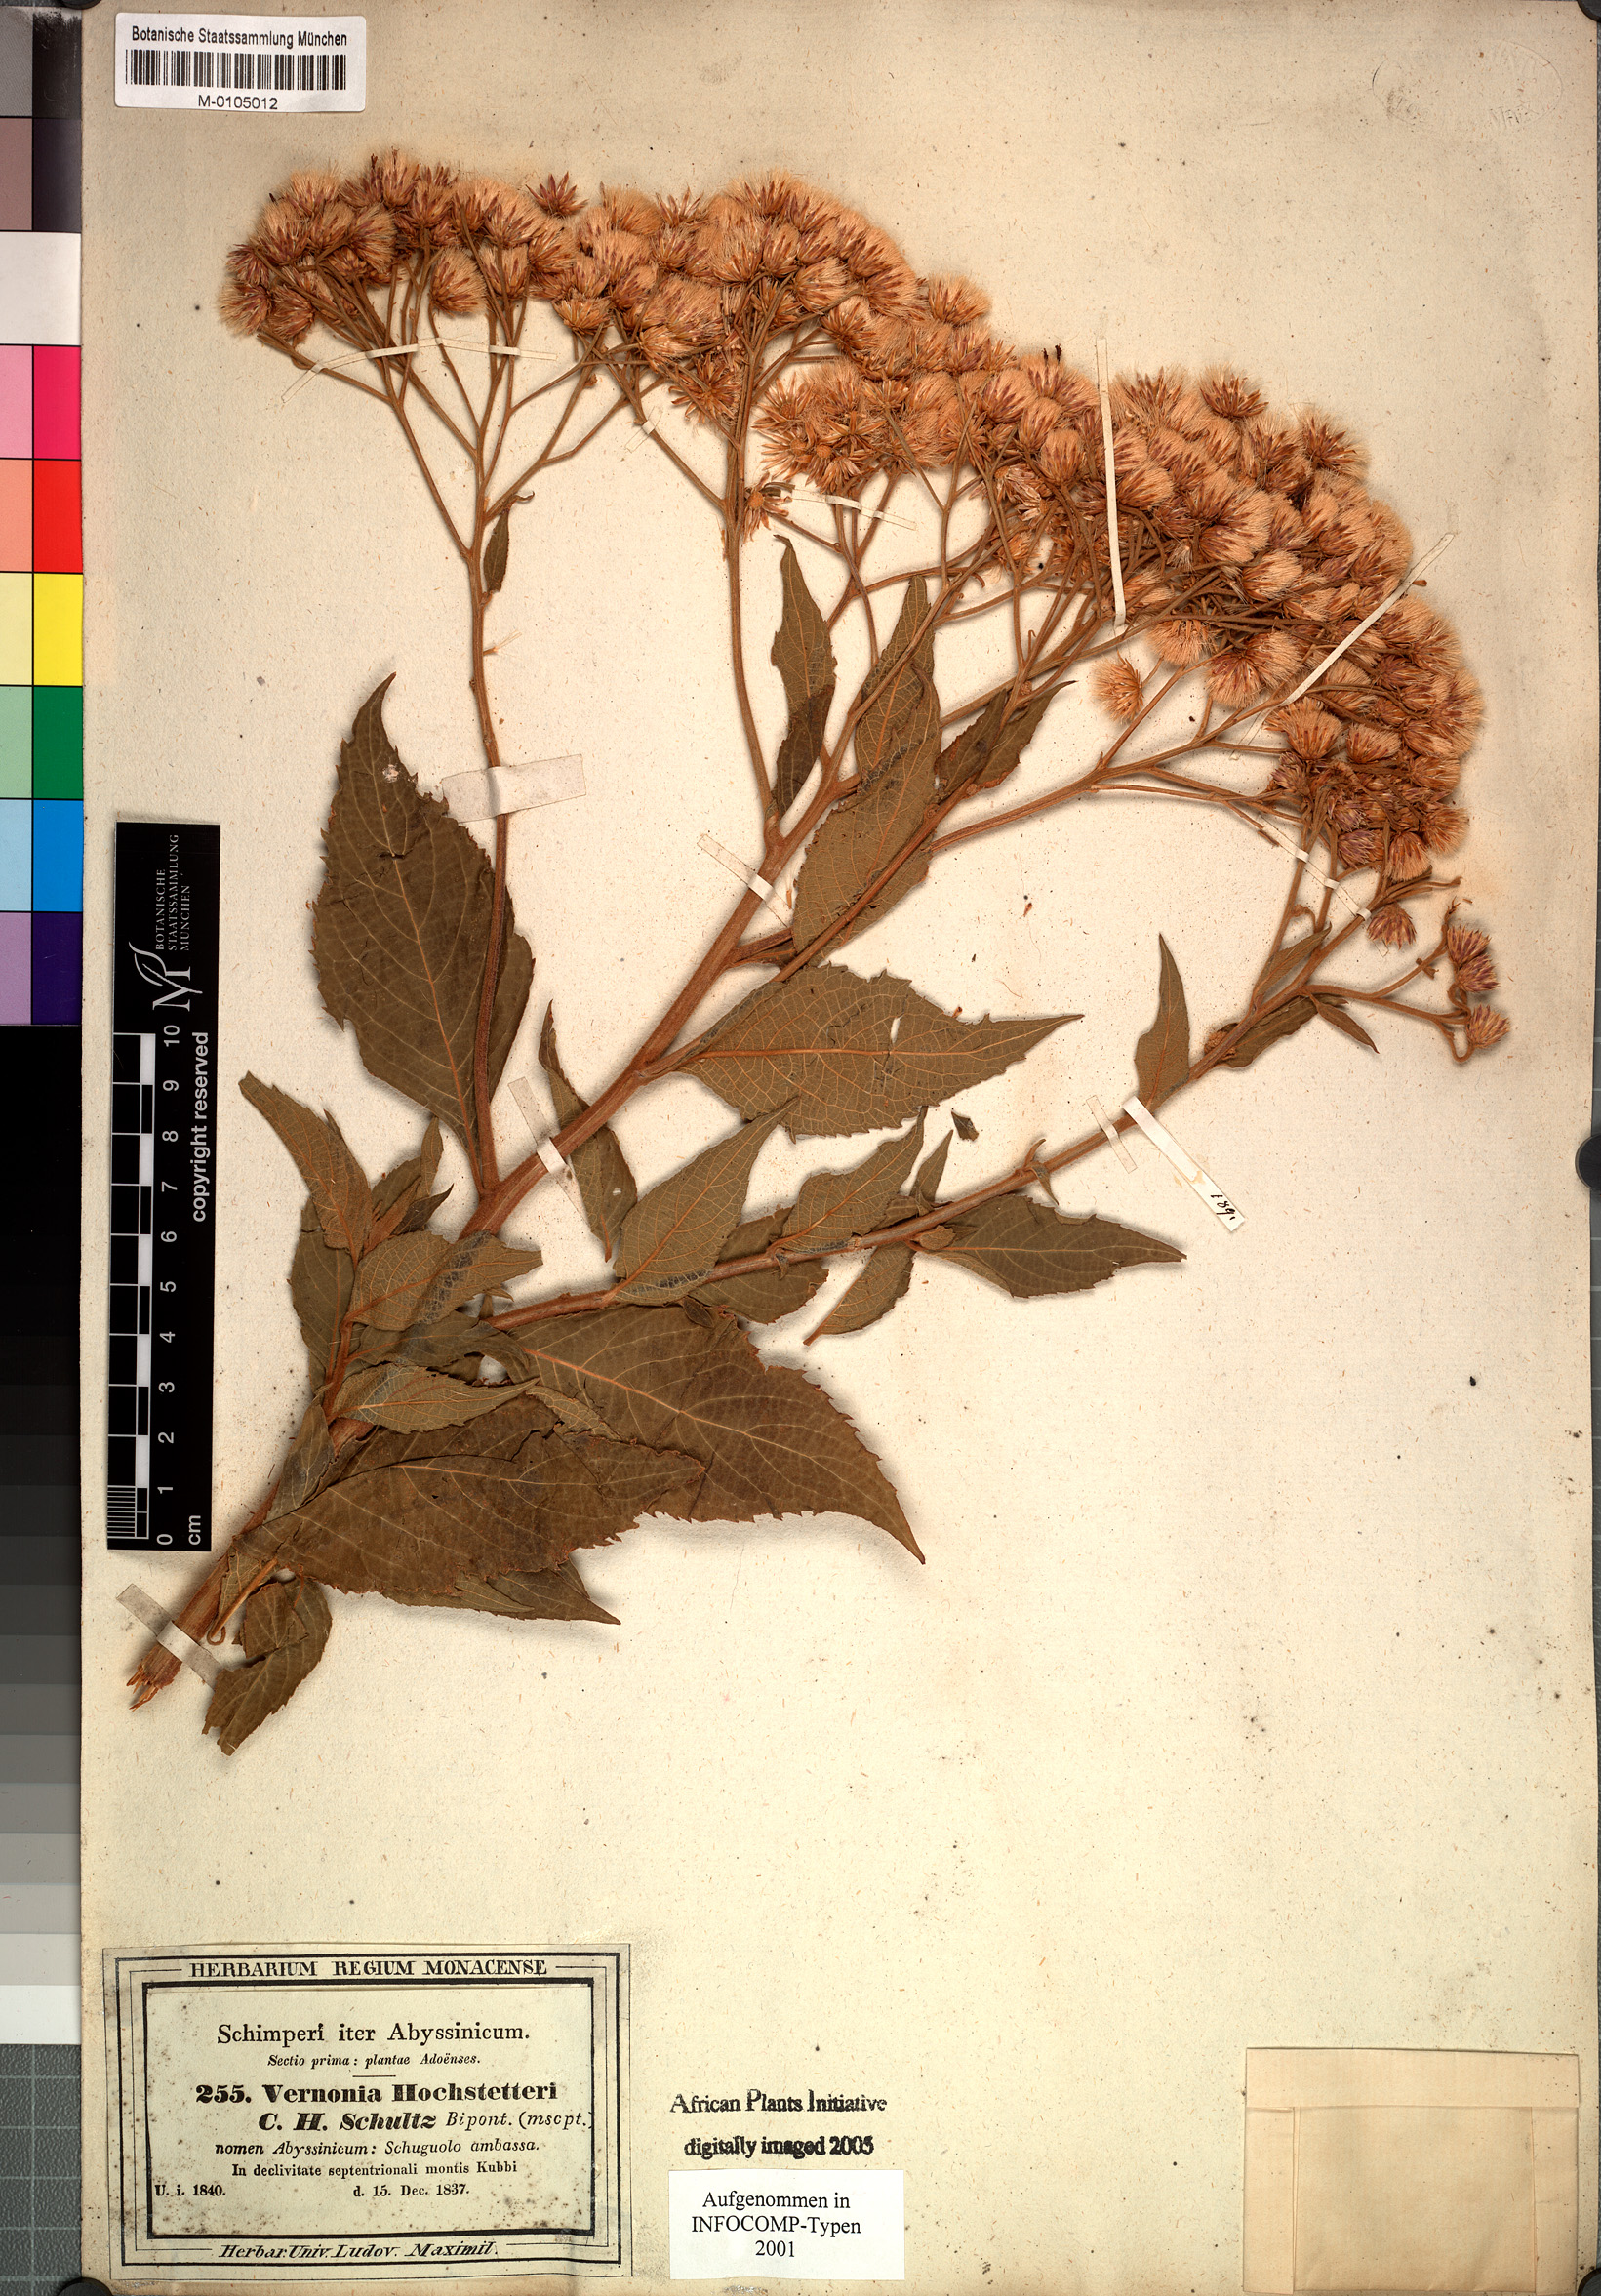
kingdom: Plantae
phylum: Tracheophyta
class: Magnoliopsida
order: Asterales
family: Asteraceae
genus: Vernonia
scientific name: Vernonia hochstetteri
